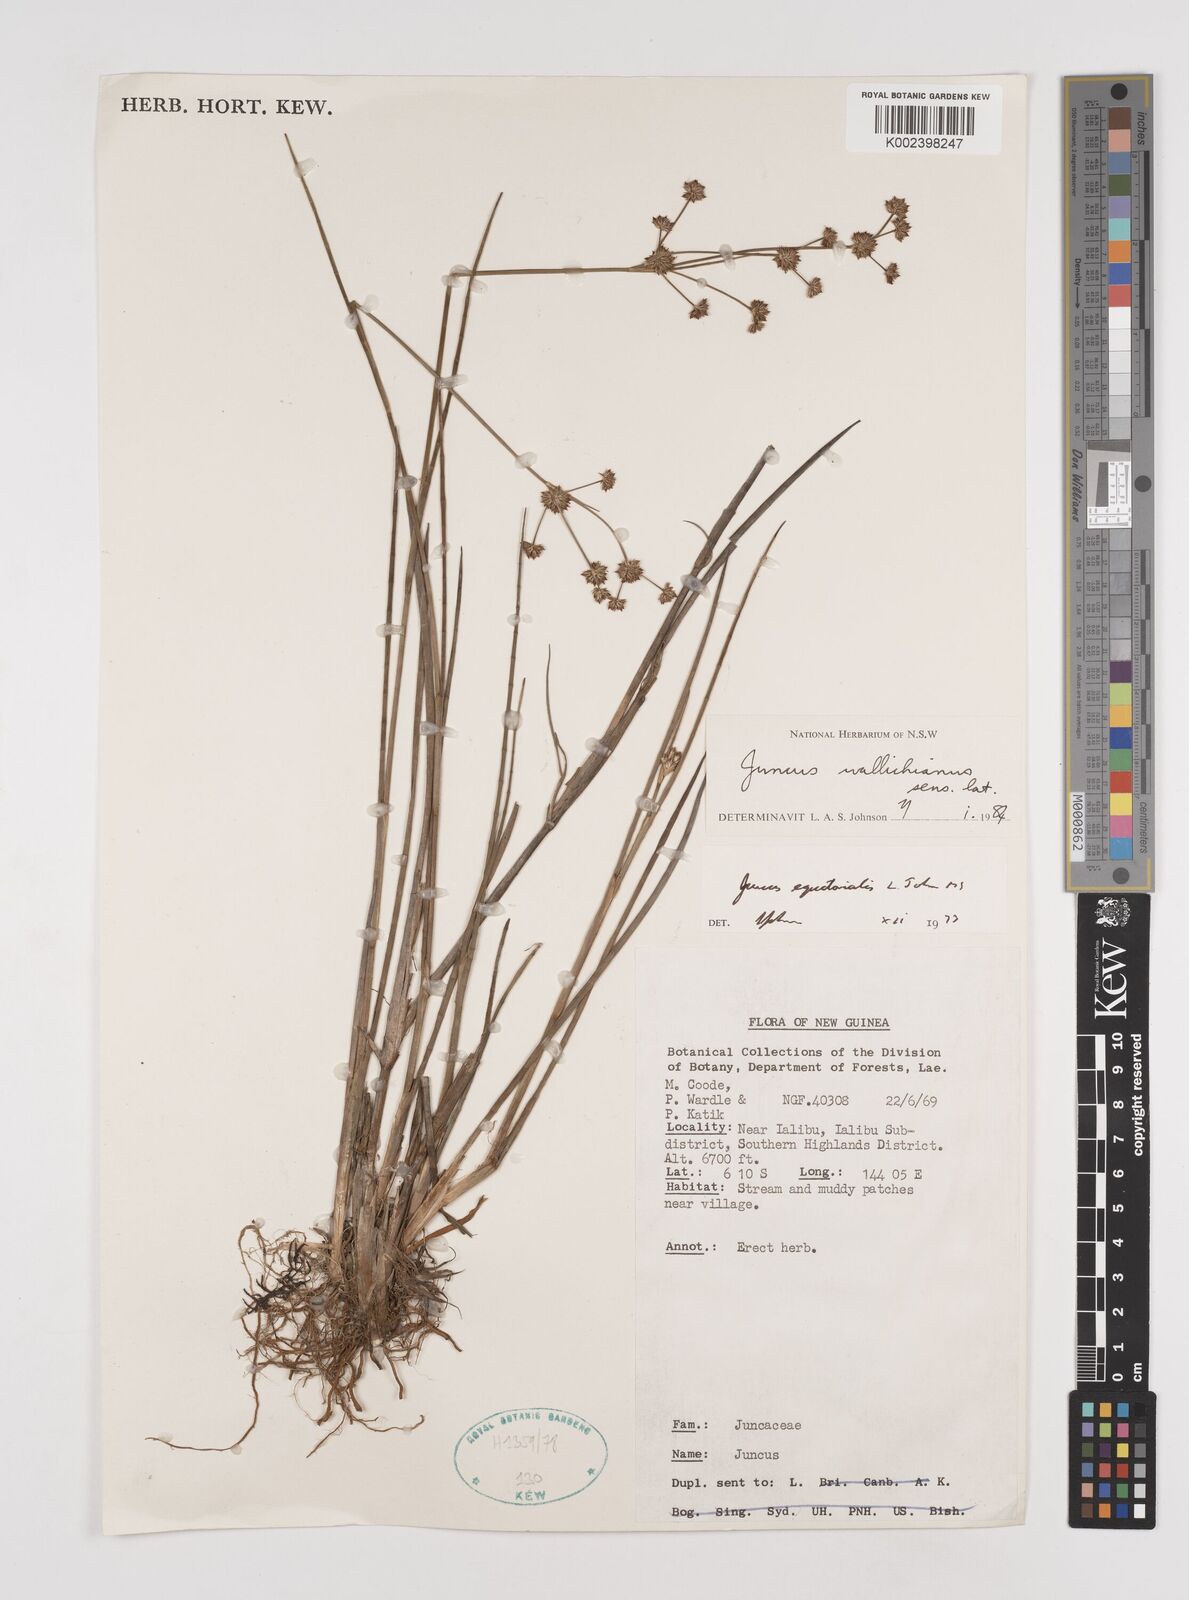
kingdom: Plantae
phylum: Tracheophyta
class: Liliopsida
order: Poales
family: Juncaceae
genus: Juncus
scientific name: Juncus wallichianus
